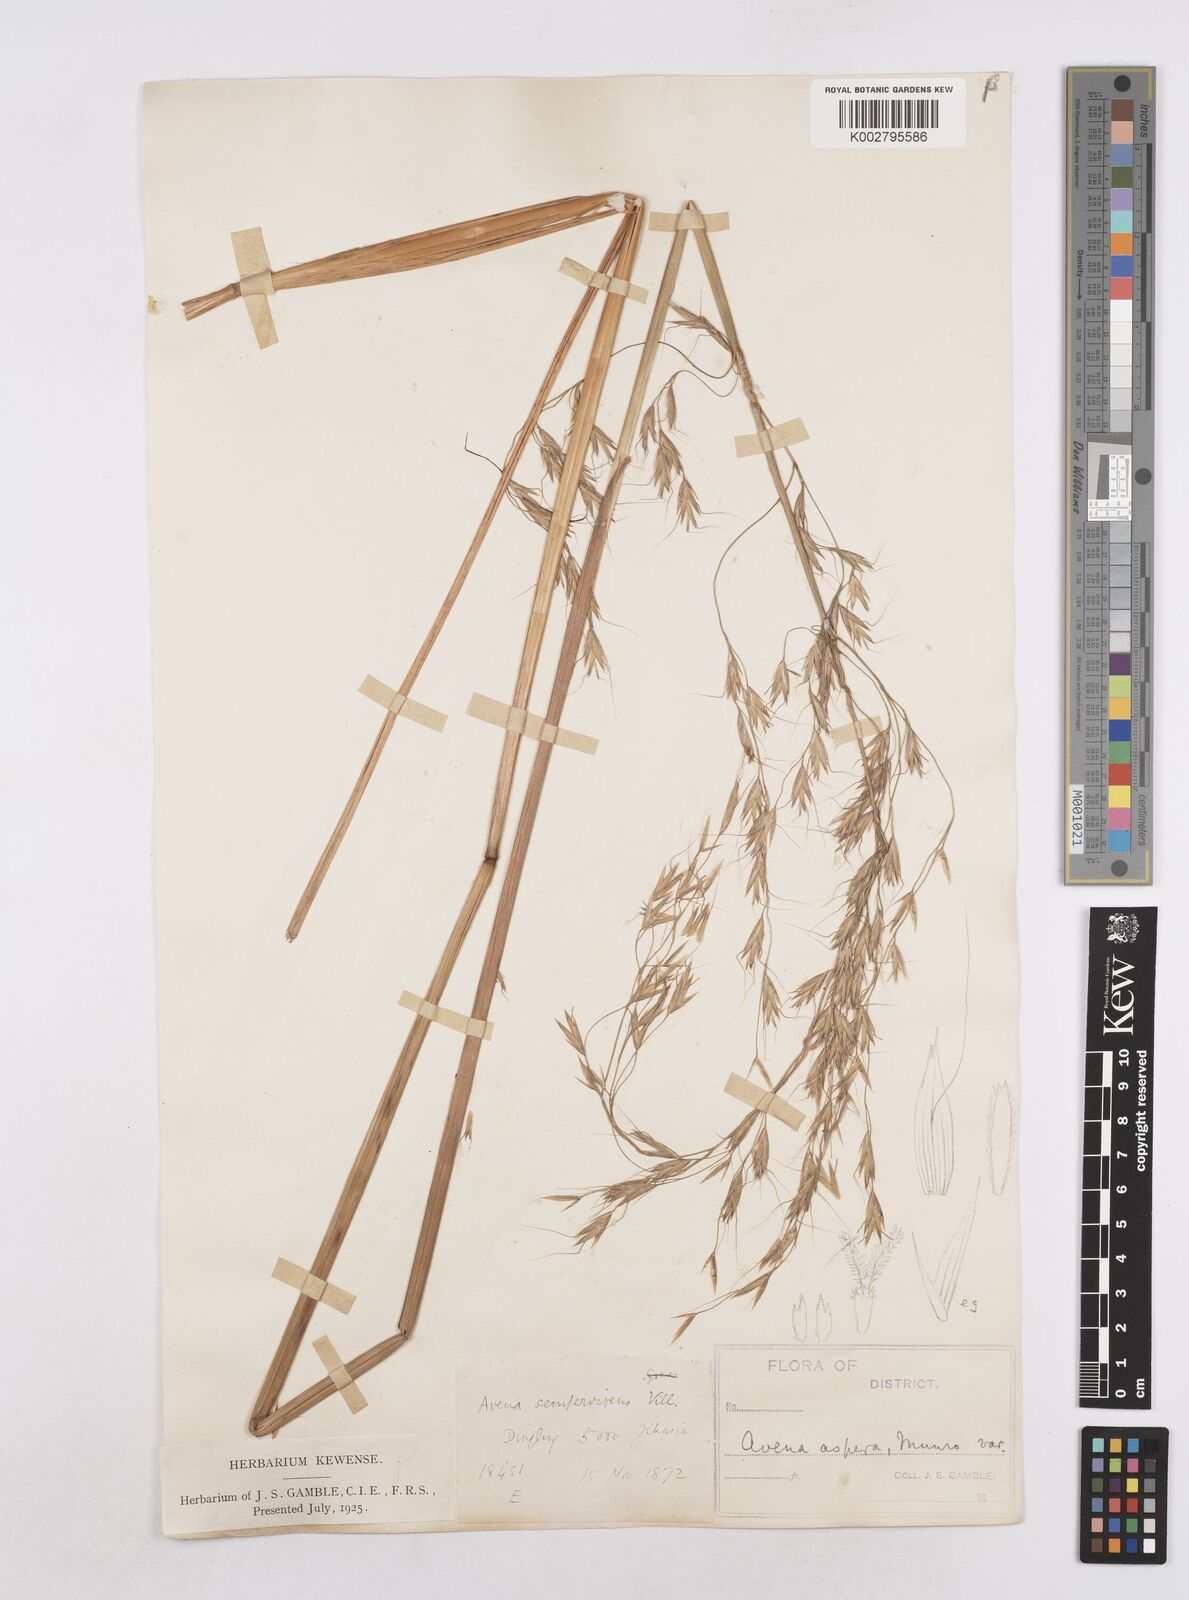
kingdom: Plantae
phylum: Tracheophyta
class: Liliopsida
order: Poales
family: Poaceae
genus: Trisetopsis
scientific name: Trisetopsis junghuhnii
